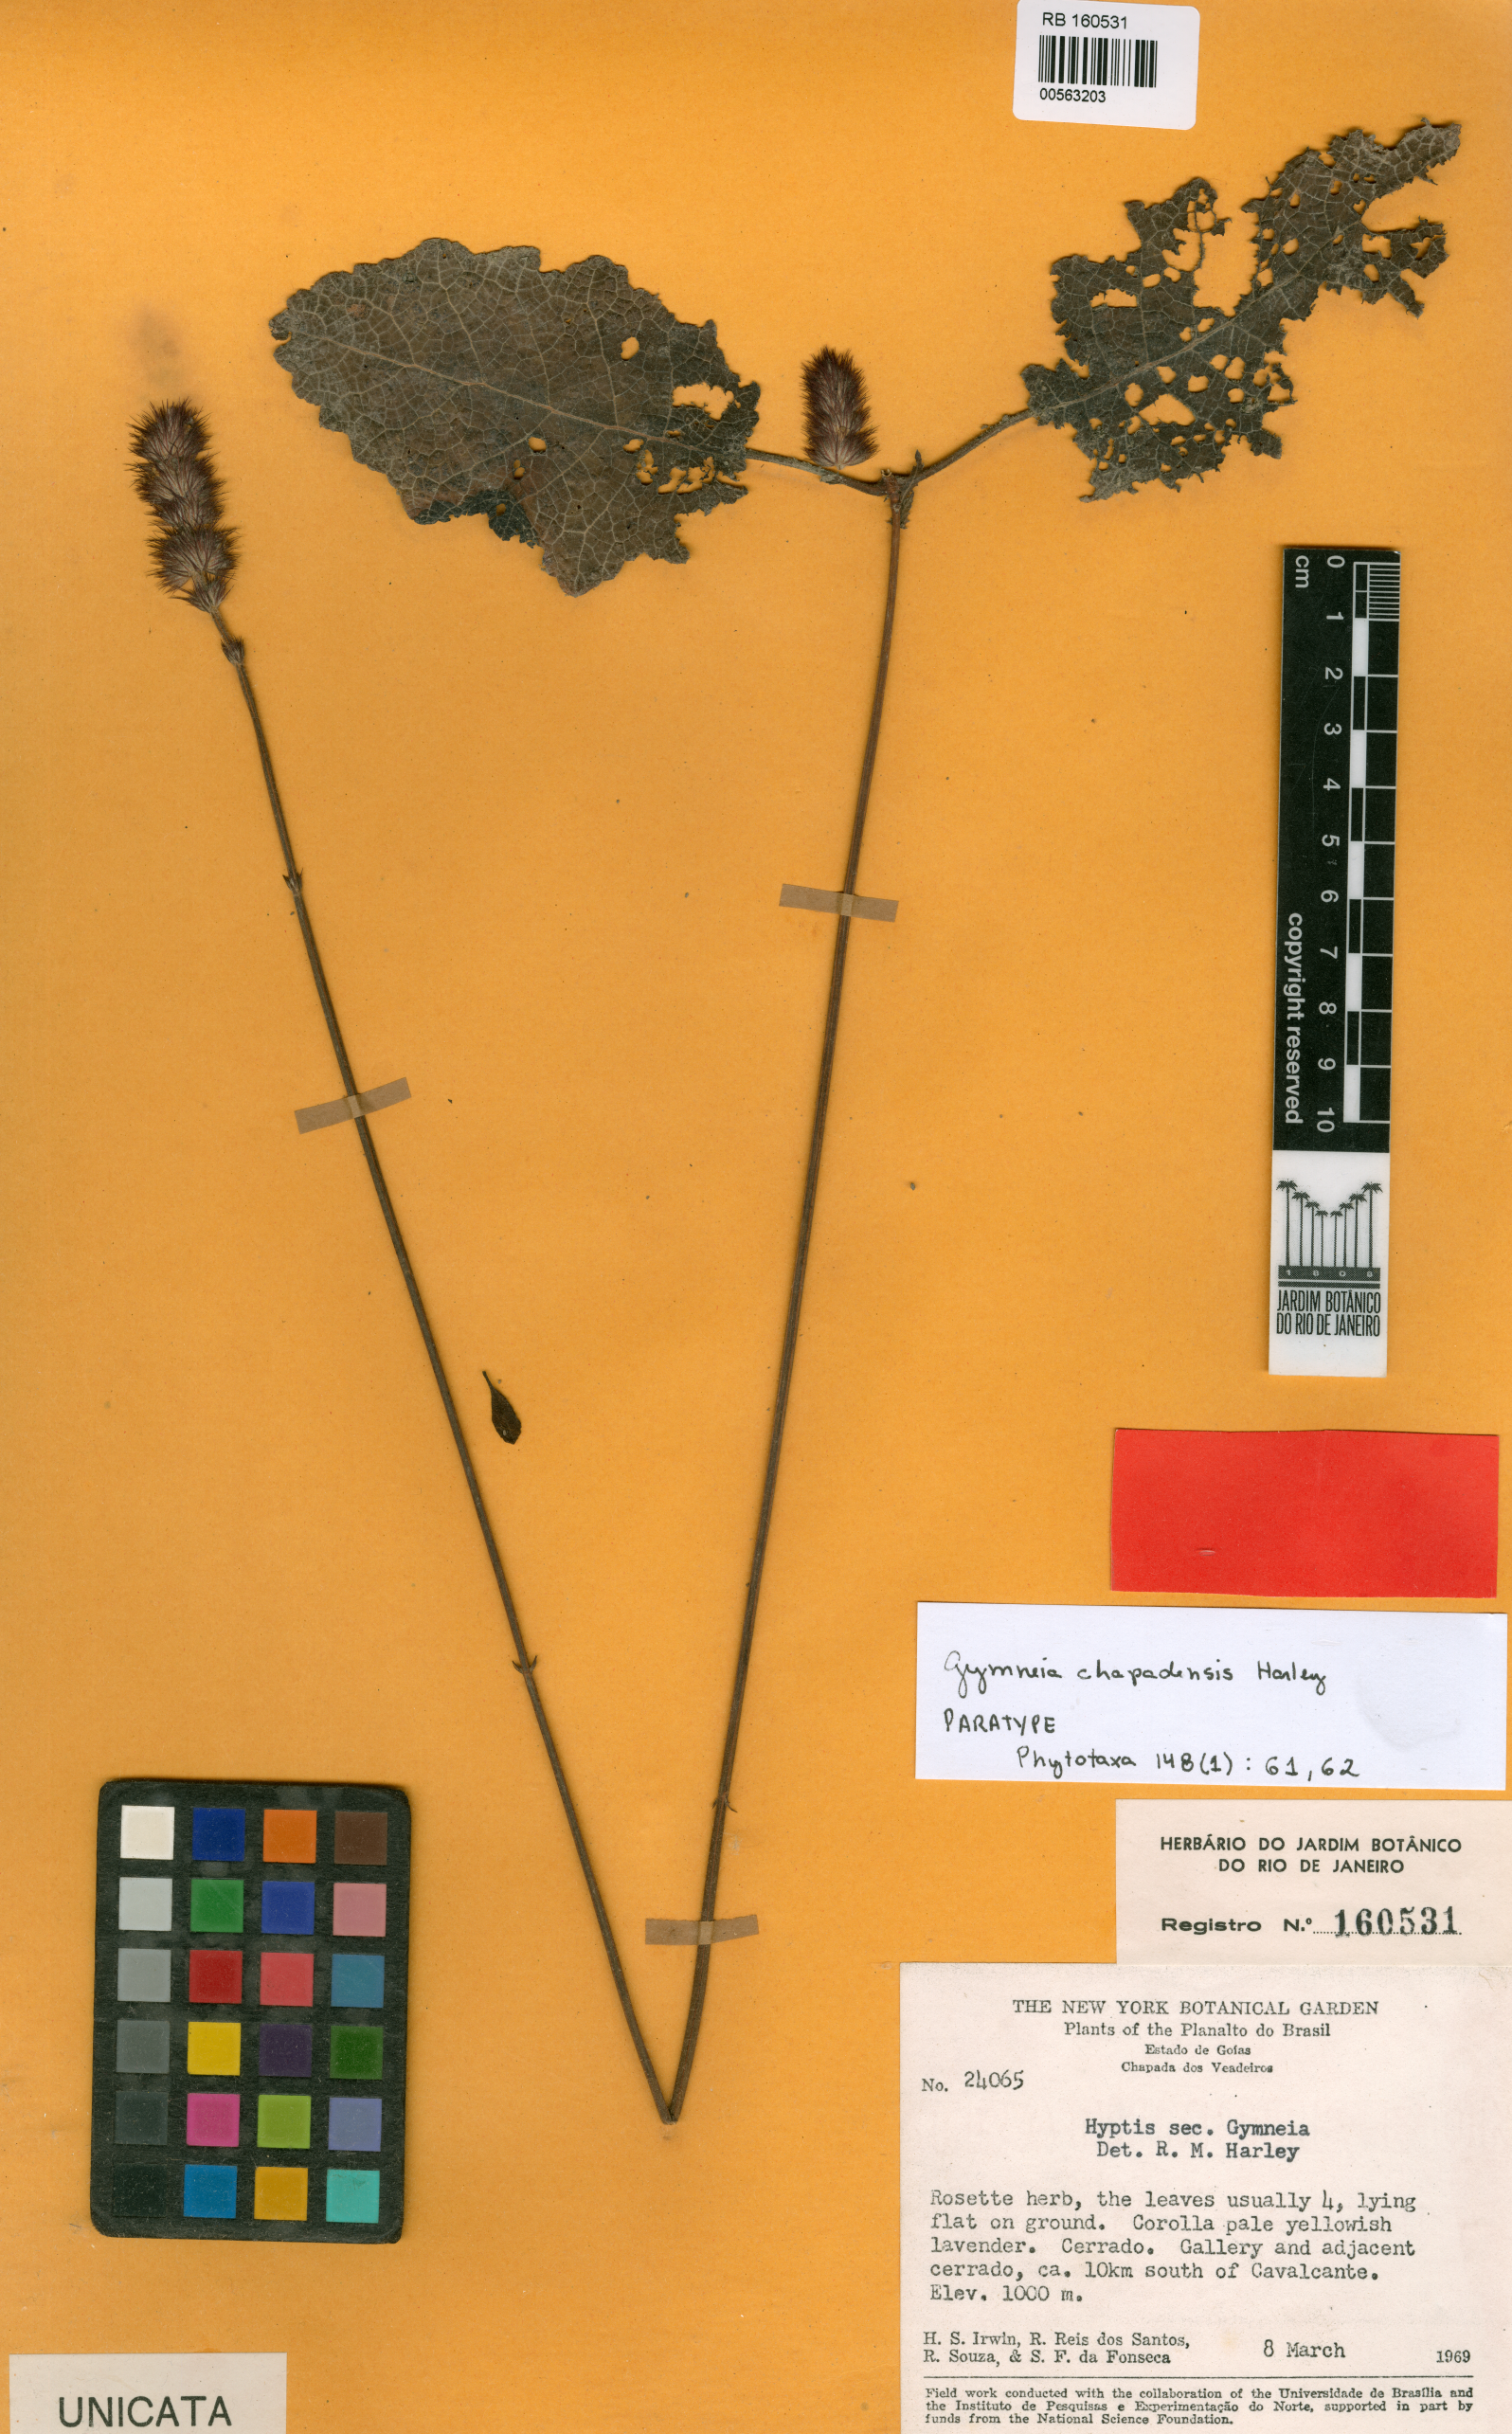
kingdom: Plantae
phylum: Tracheophyta
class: Magnoliopsida
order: Lamiales
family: Lamiaceae
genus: Mesosphaerum
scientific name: Mesosphaerum oblongifolium
